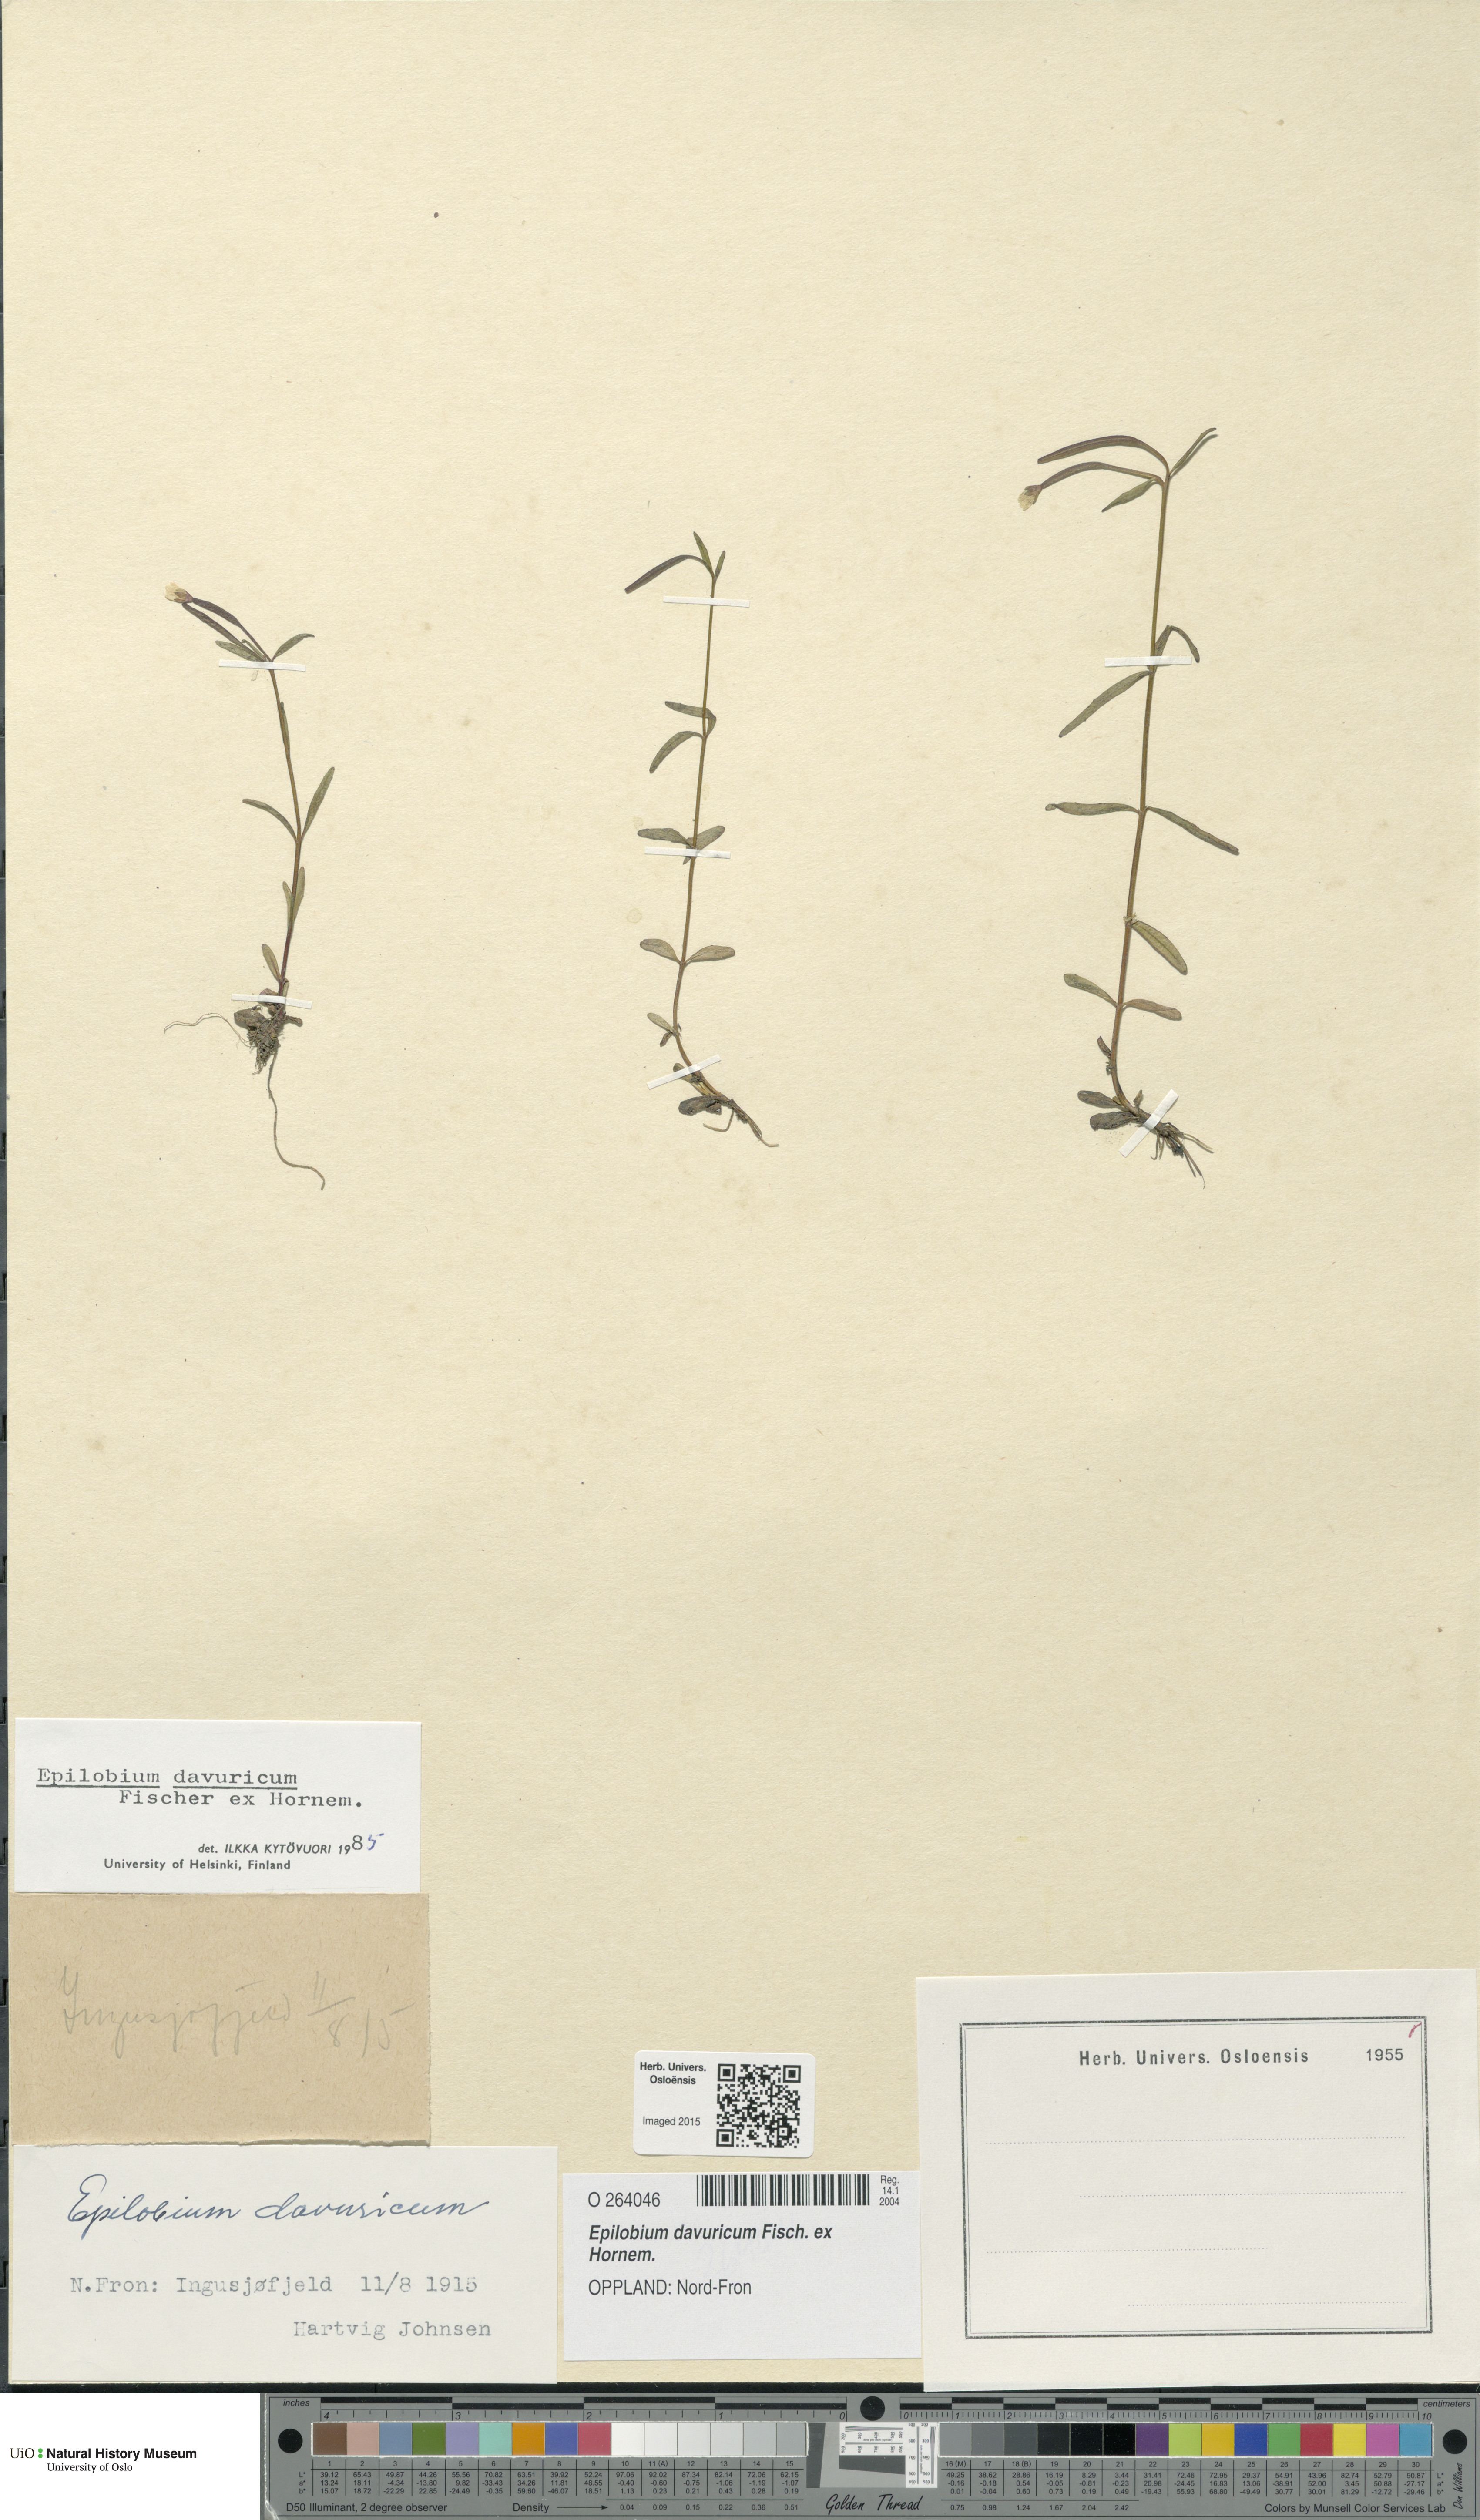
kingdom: Plantae
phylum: Tracheophyta
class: Magnoliopsida
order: Myrtales
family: Onagraceae
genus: Epilobium
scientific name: Epilobium davuricum
